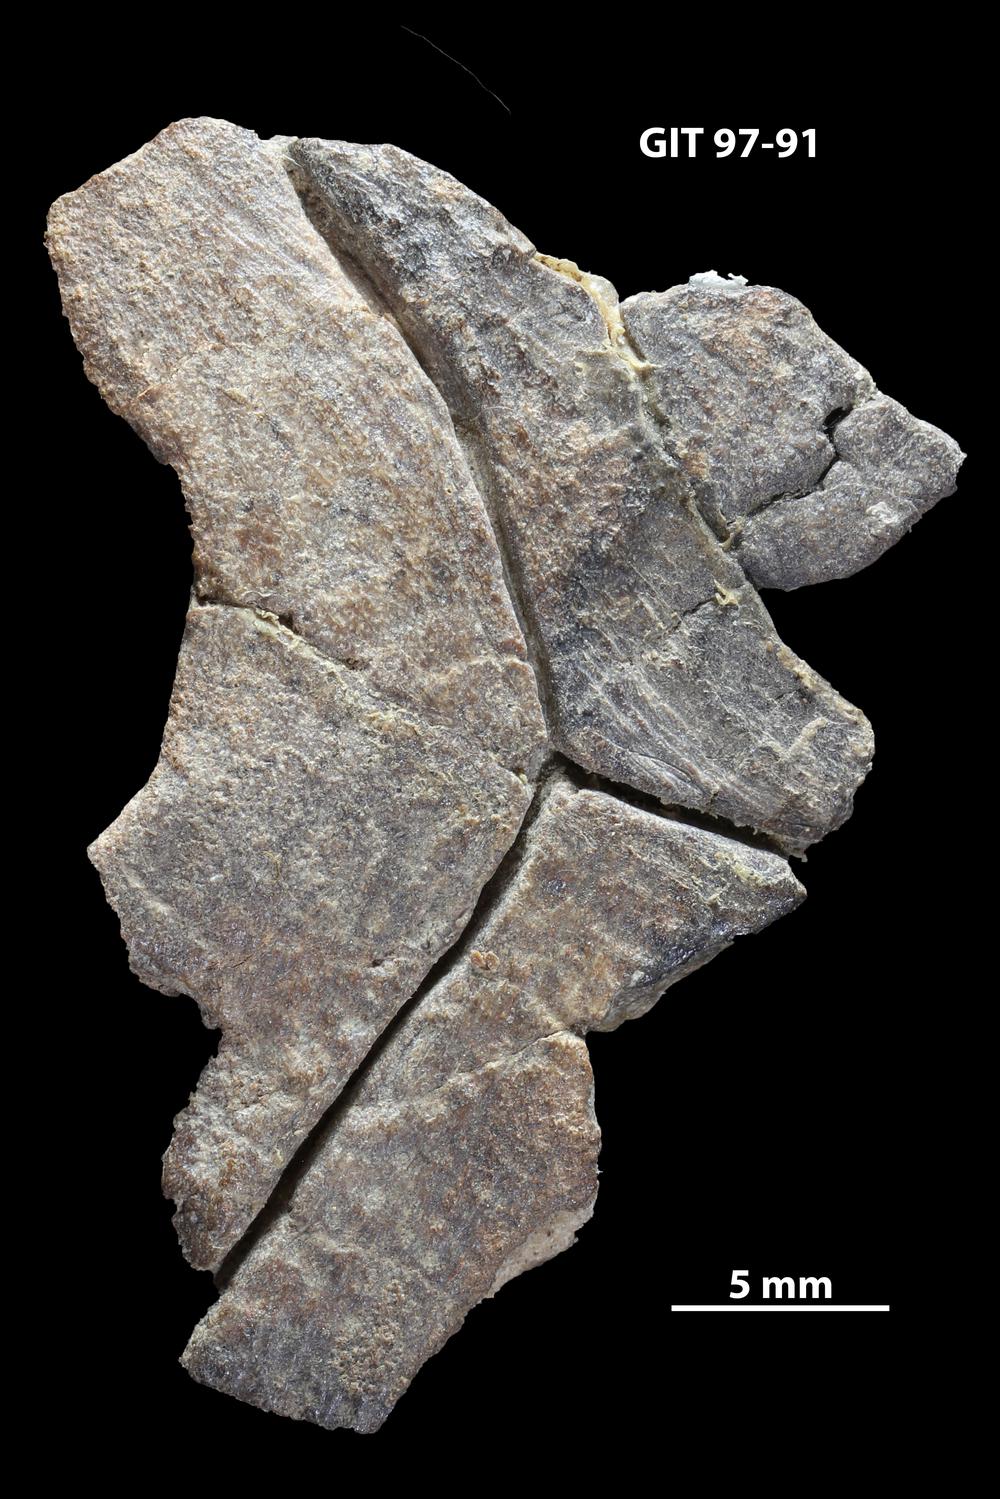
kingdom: Animalia
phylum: Chordata
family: Holonematidae
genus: Holonema
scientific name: Holonema
